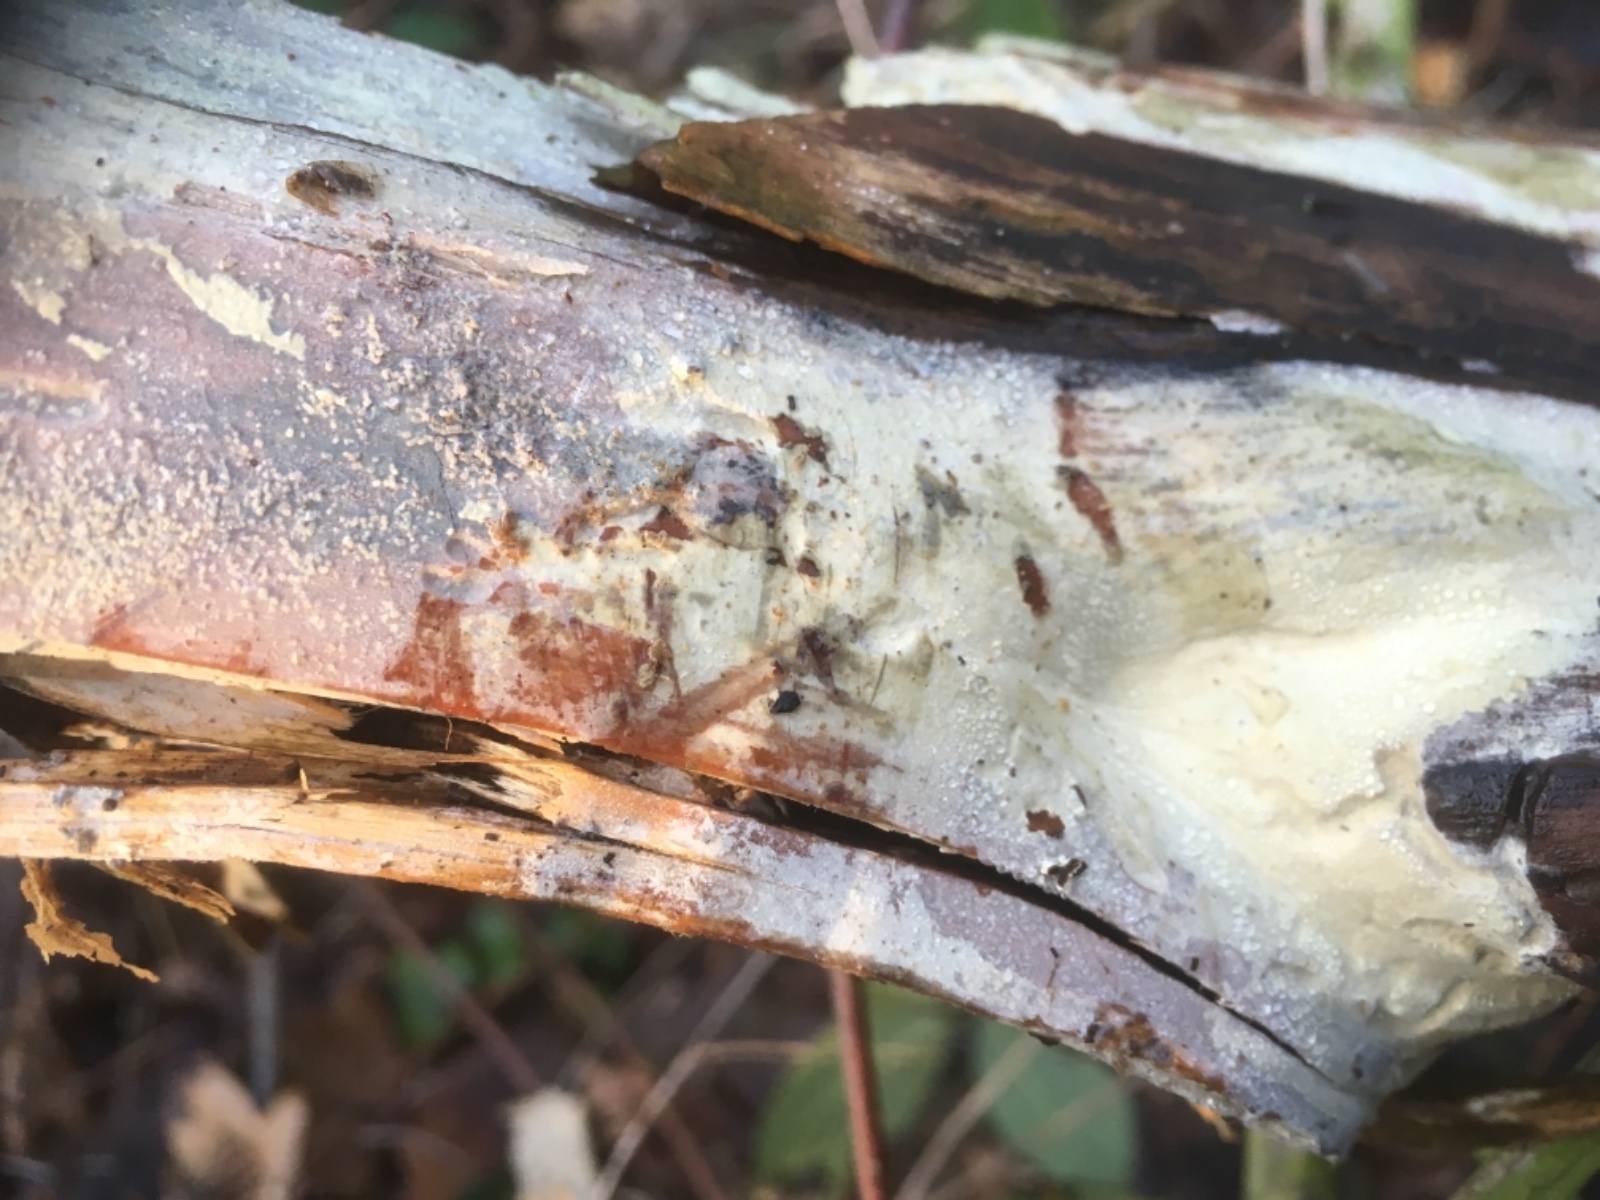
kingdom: Fungi
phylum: Basidiomycota
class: Agaricomycetes
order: Corticiales
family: Corticiaceae
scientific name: Corticiaceae
